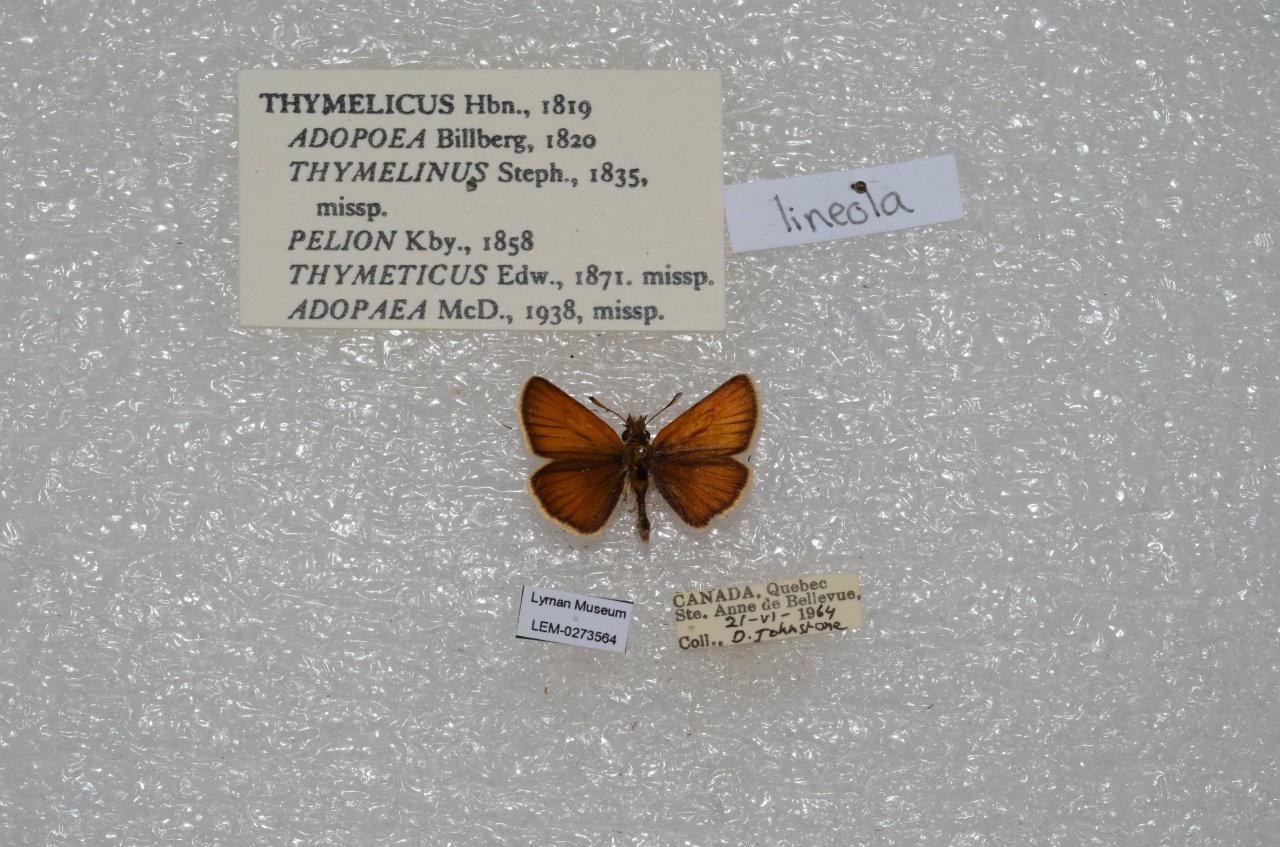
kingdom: Animalia
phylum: Arthropoda
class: Insecta
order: Lepidoptera
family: Hesperiidae
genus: Thymelicus
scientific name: Thymelicus lineola
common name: European Skipper
